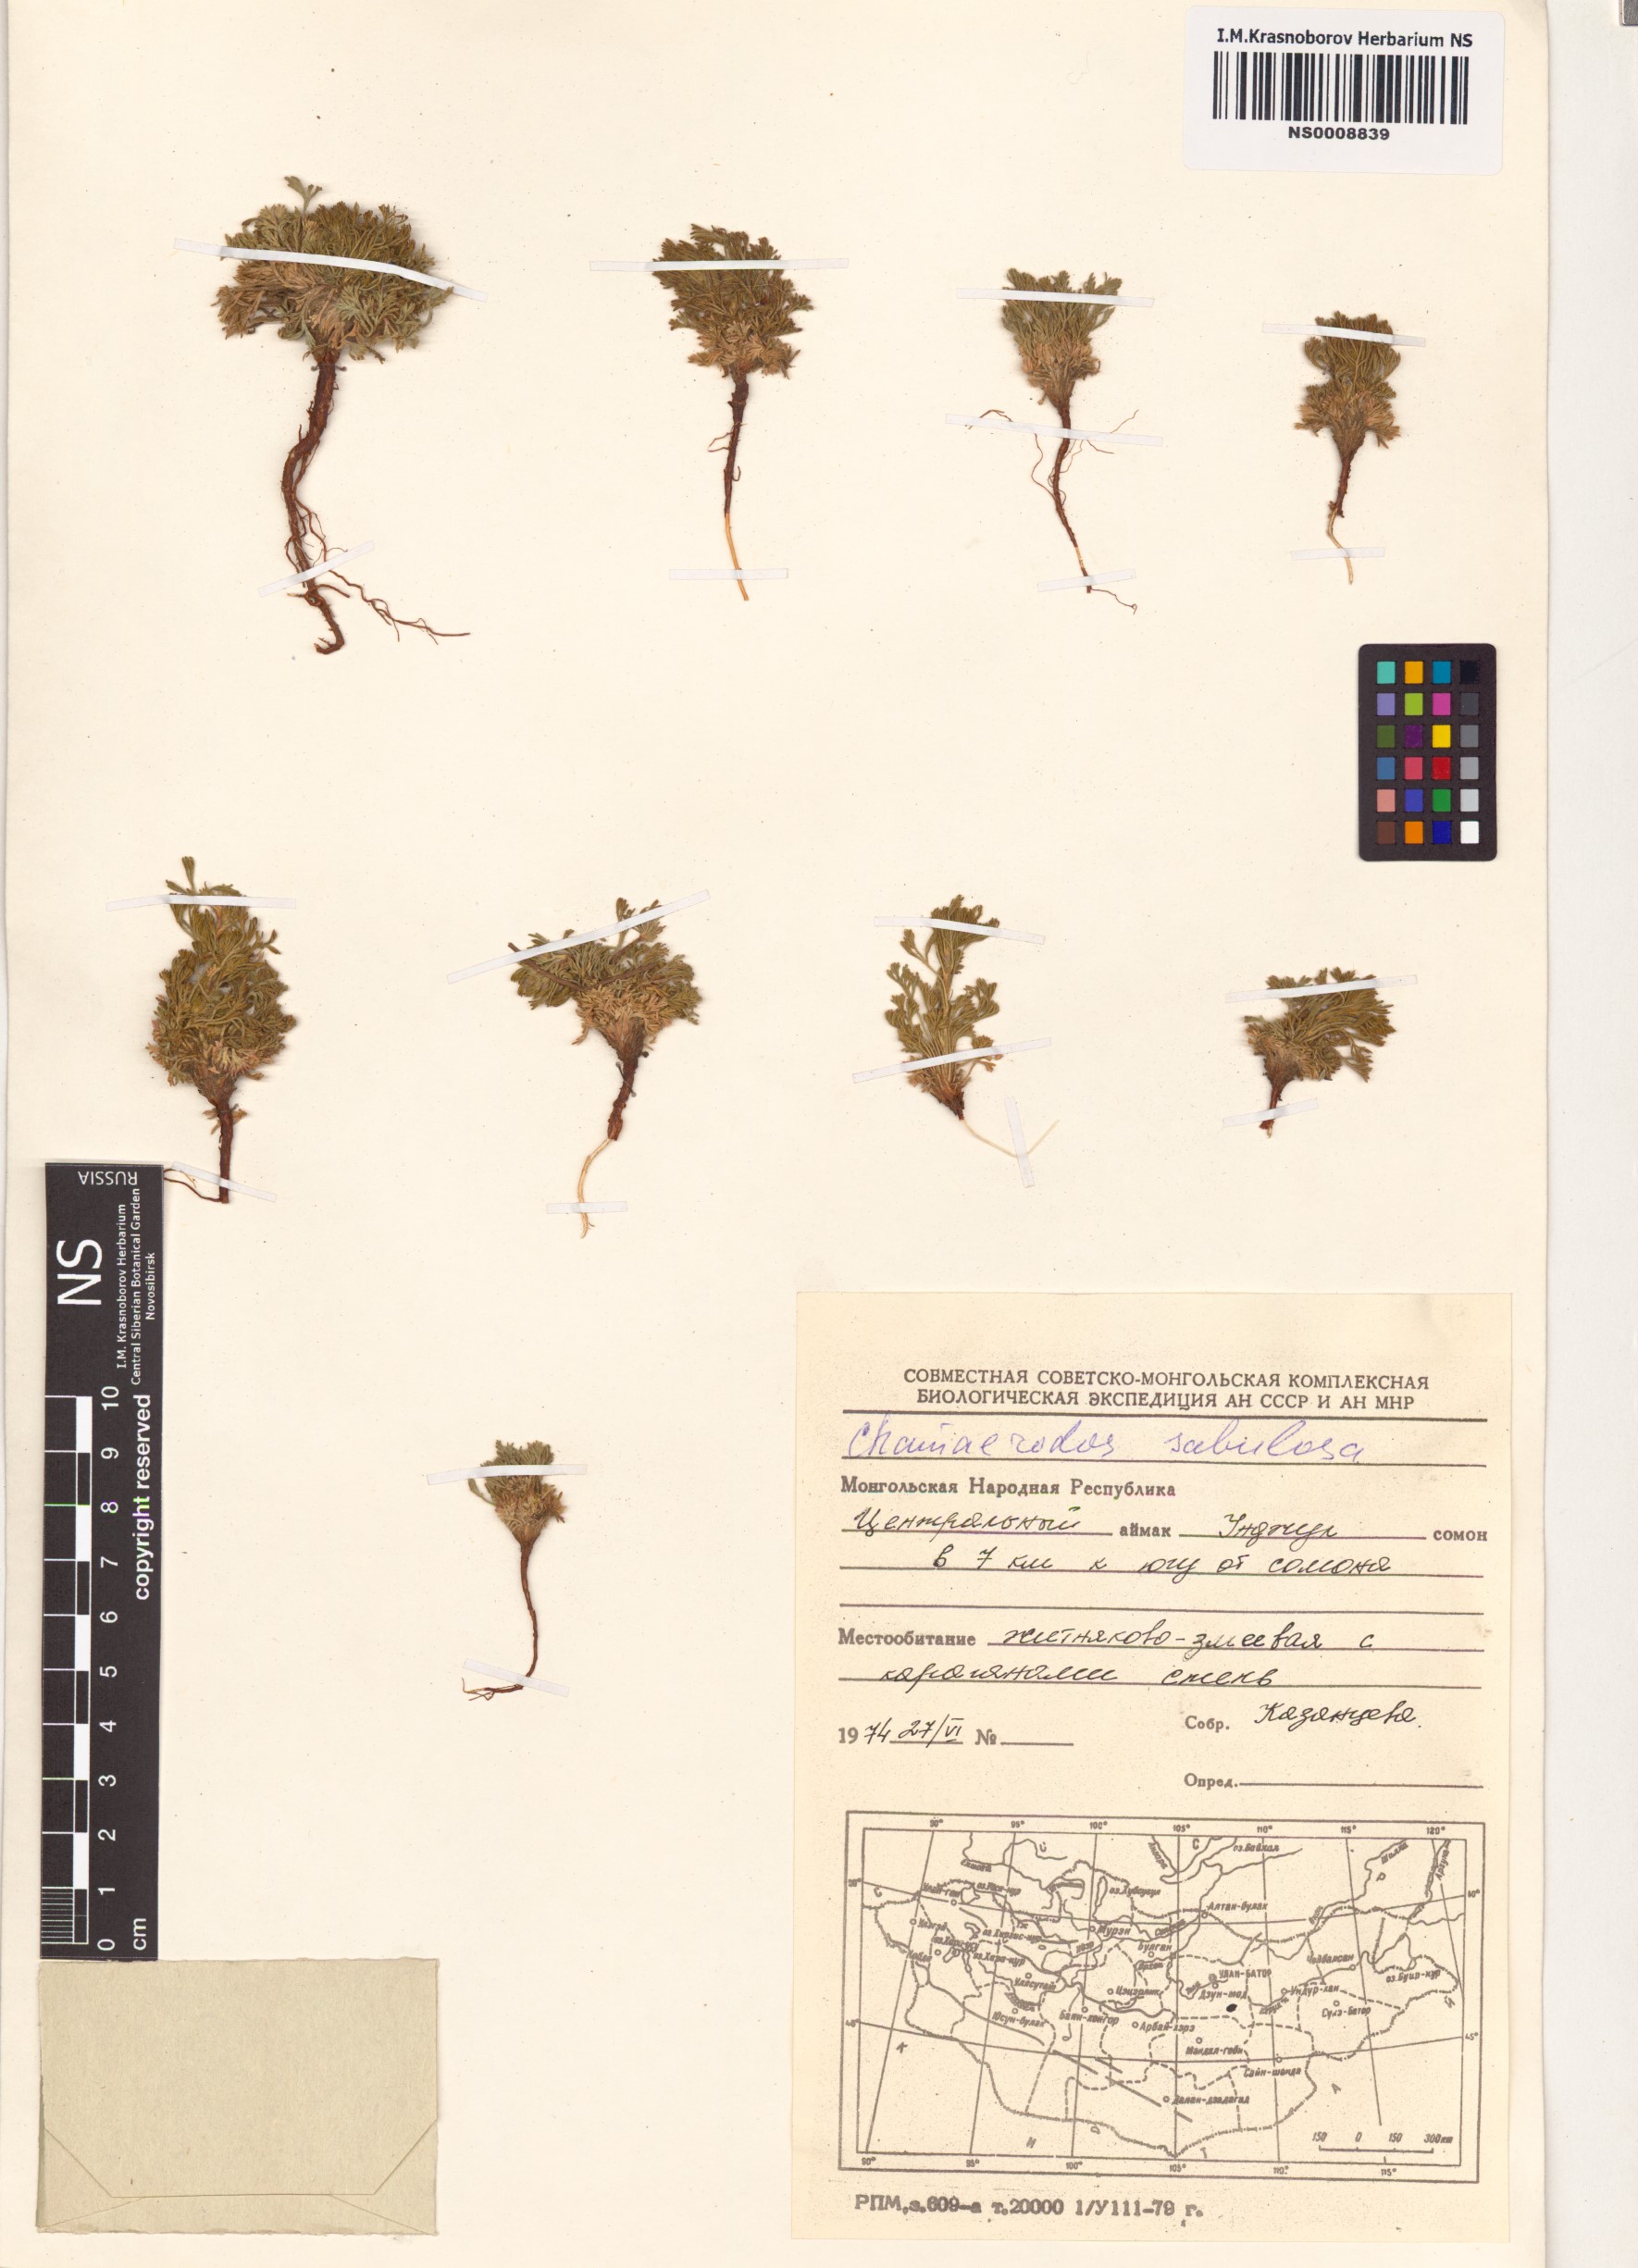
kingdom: Plantae
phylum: Tracheophyta
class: Magnoliopsida
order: Rosales
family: Rosaceae
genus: Chamaerhodos
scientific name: Chamaerhodos sabulosa
